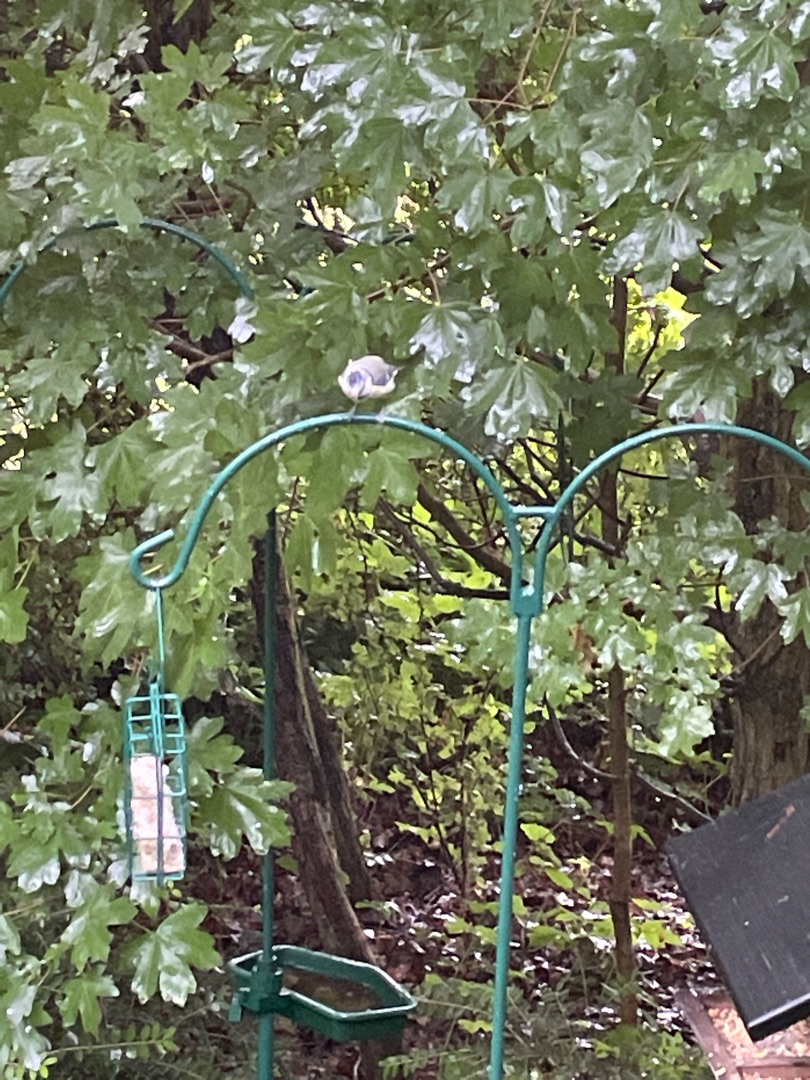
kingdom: Animalia
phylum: Chordata
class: Aves
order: Passeriformes
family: Paridae
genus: Cyanistes
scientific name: Cyanistes caeruleus
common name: Blåmejse
